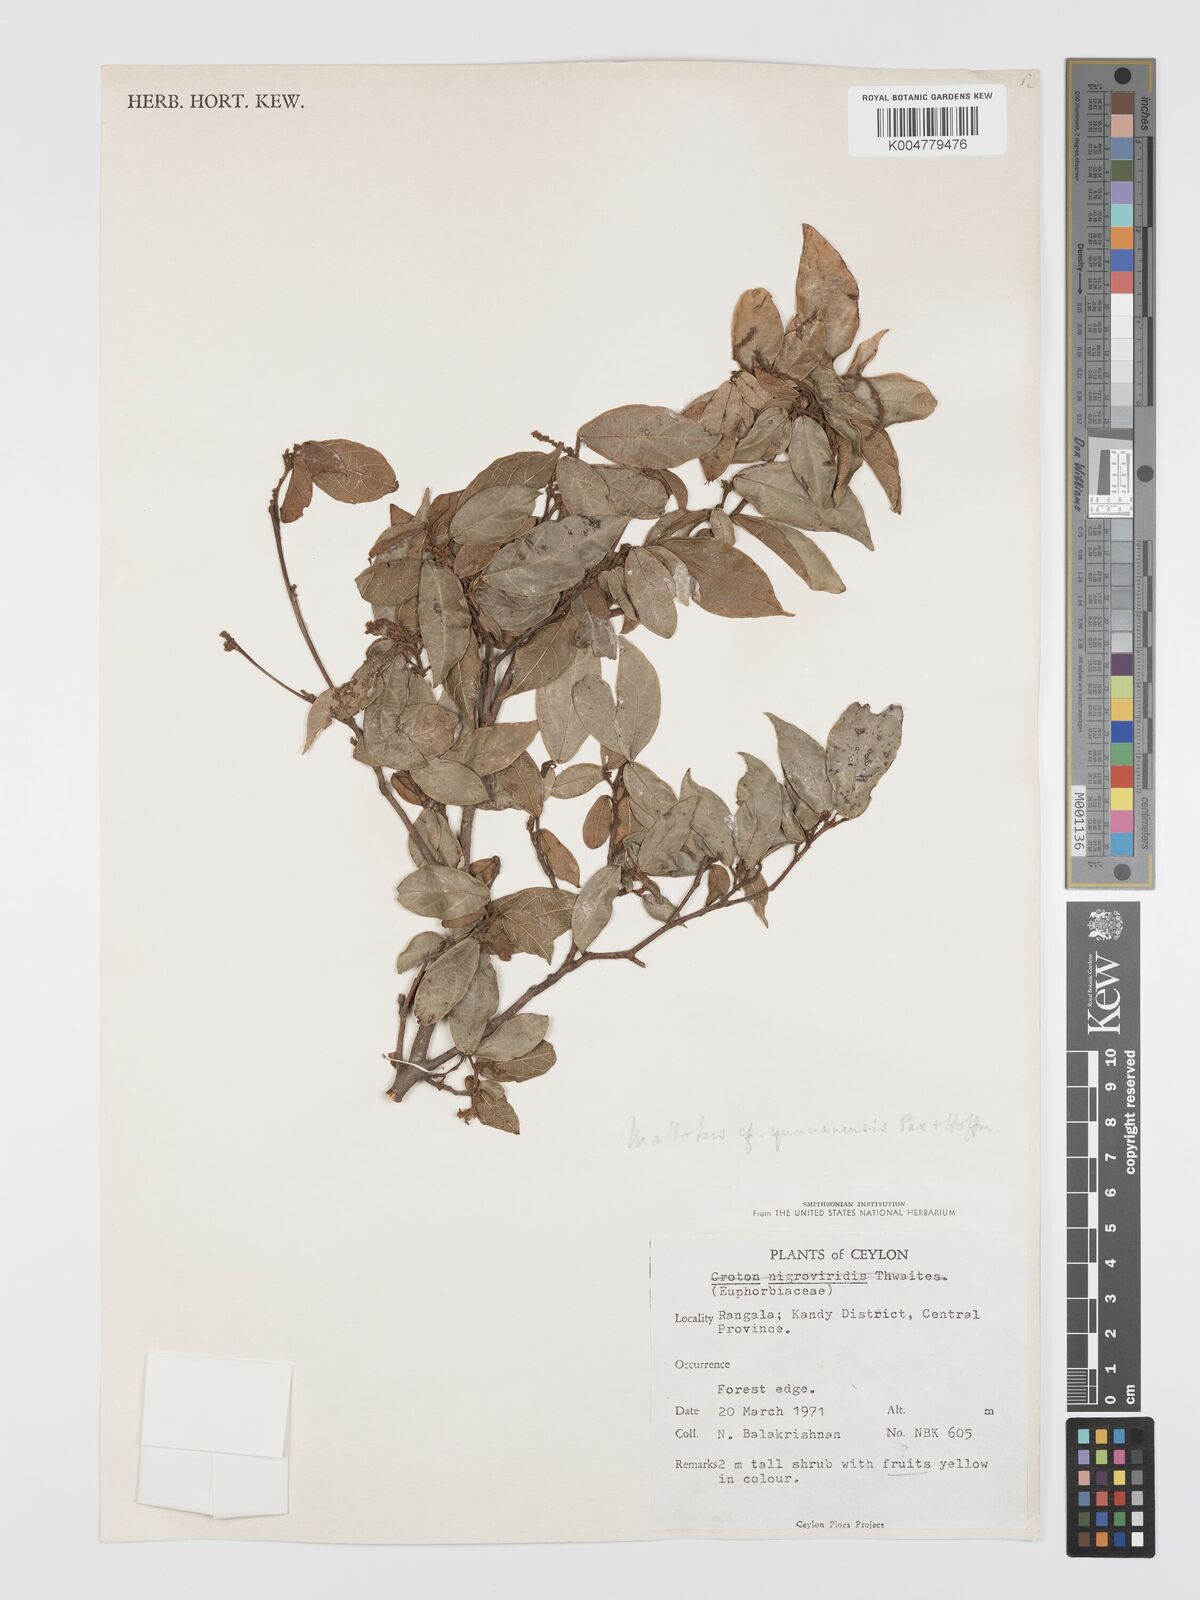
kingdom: Plantae
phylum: Tracheophyta
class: Magnoliopsida
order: Malpighiales
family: Euphorbiaceae
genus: Mallotus
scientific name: Mallotus yunnanensis
